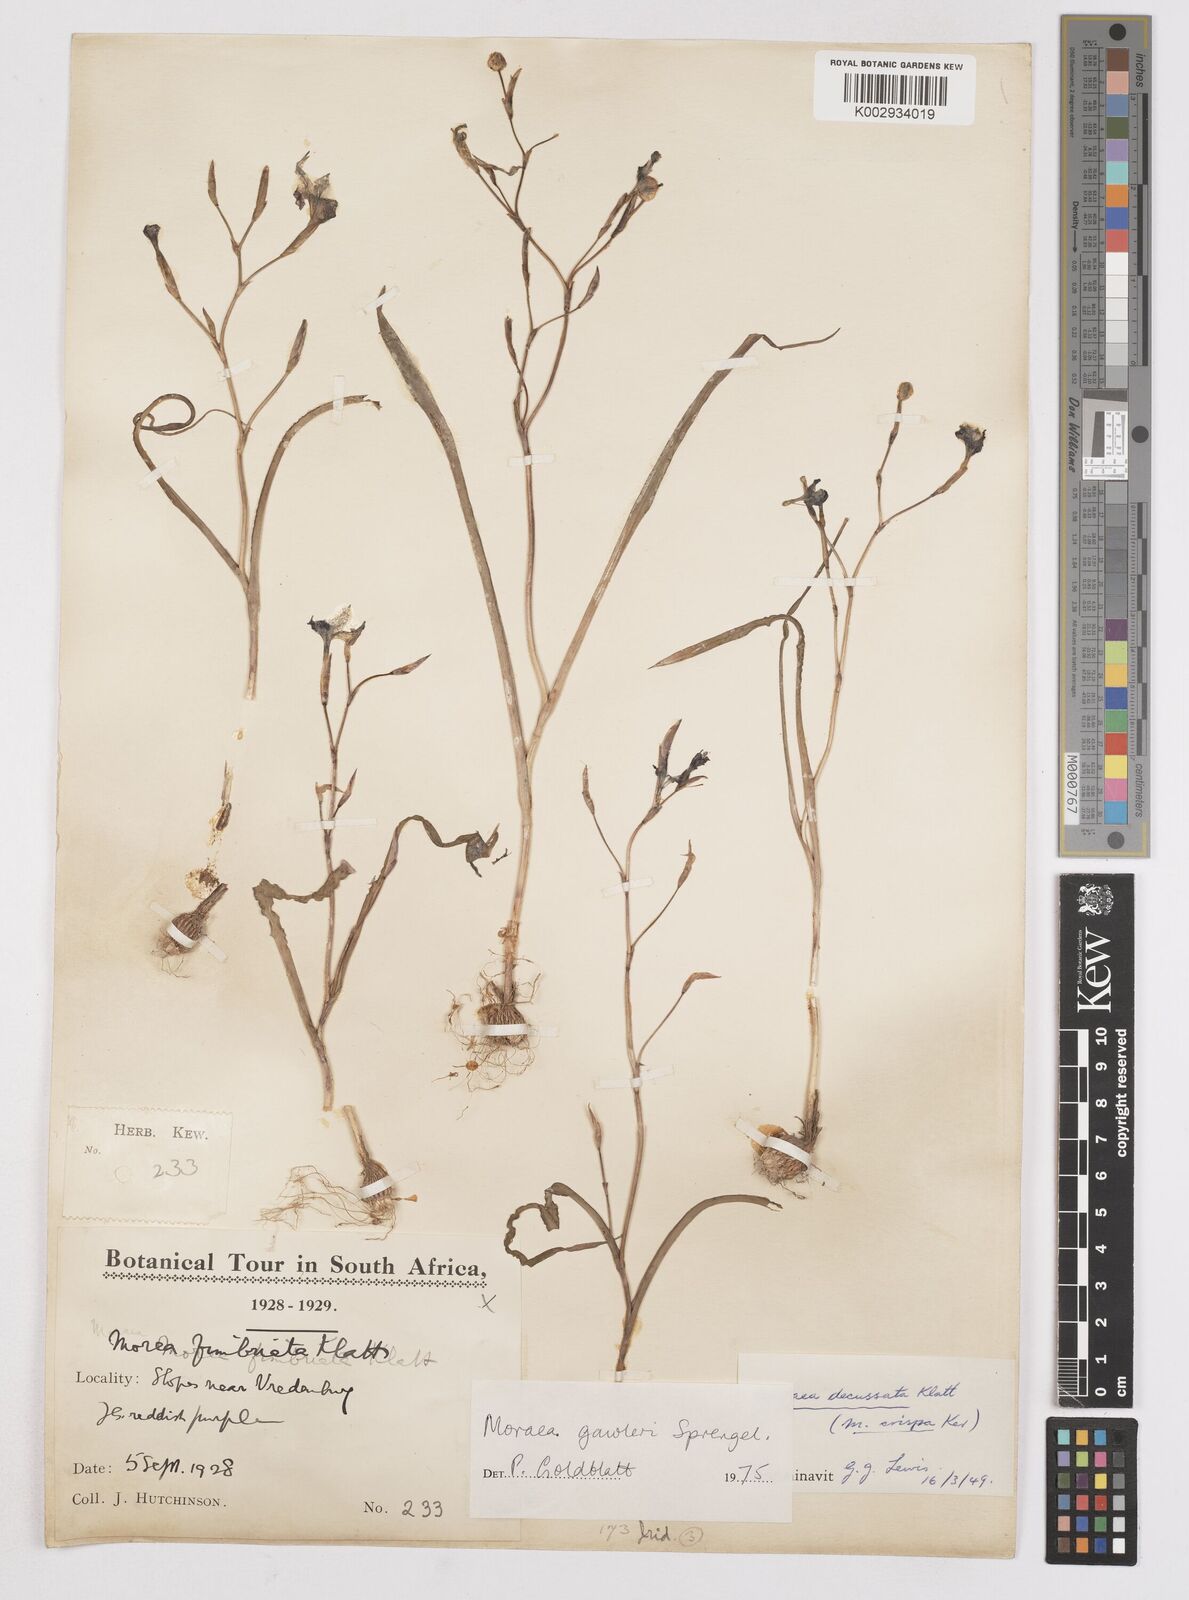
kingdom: Plantae
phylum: Tracheophyta
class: Liliopsida
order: Asparagales
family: Iridaceae
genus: Moraea
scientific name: Moraea gawleri
